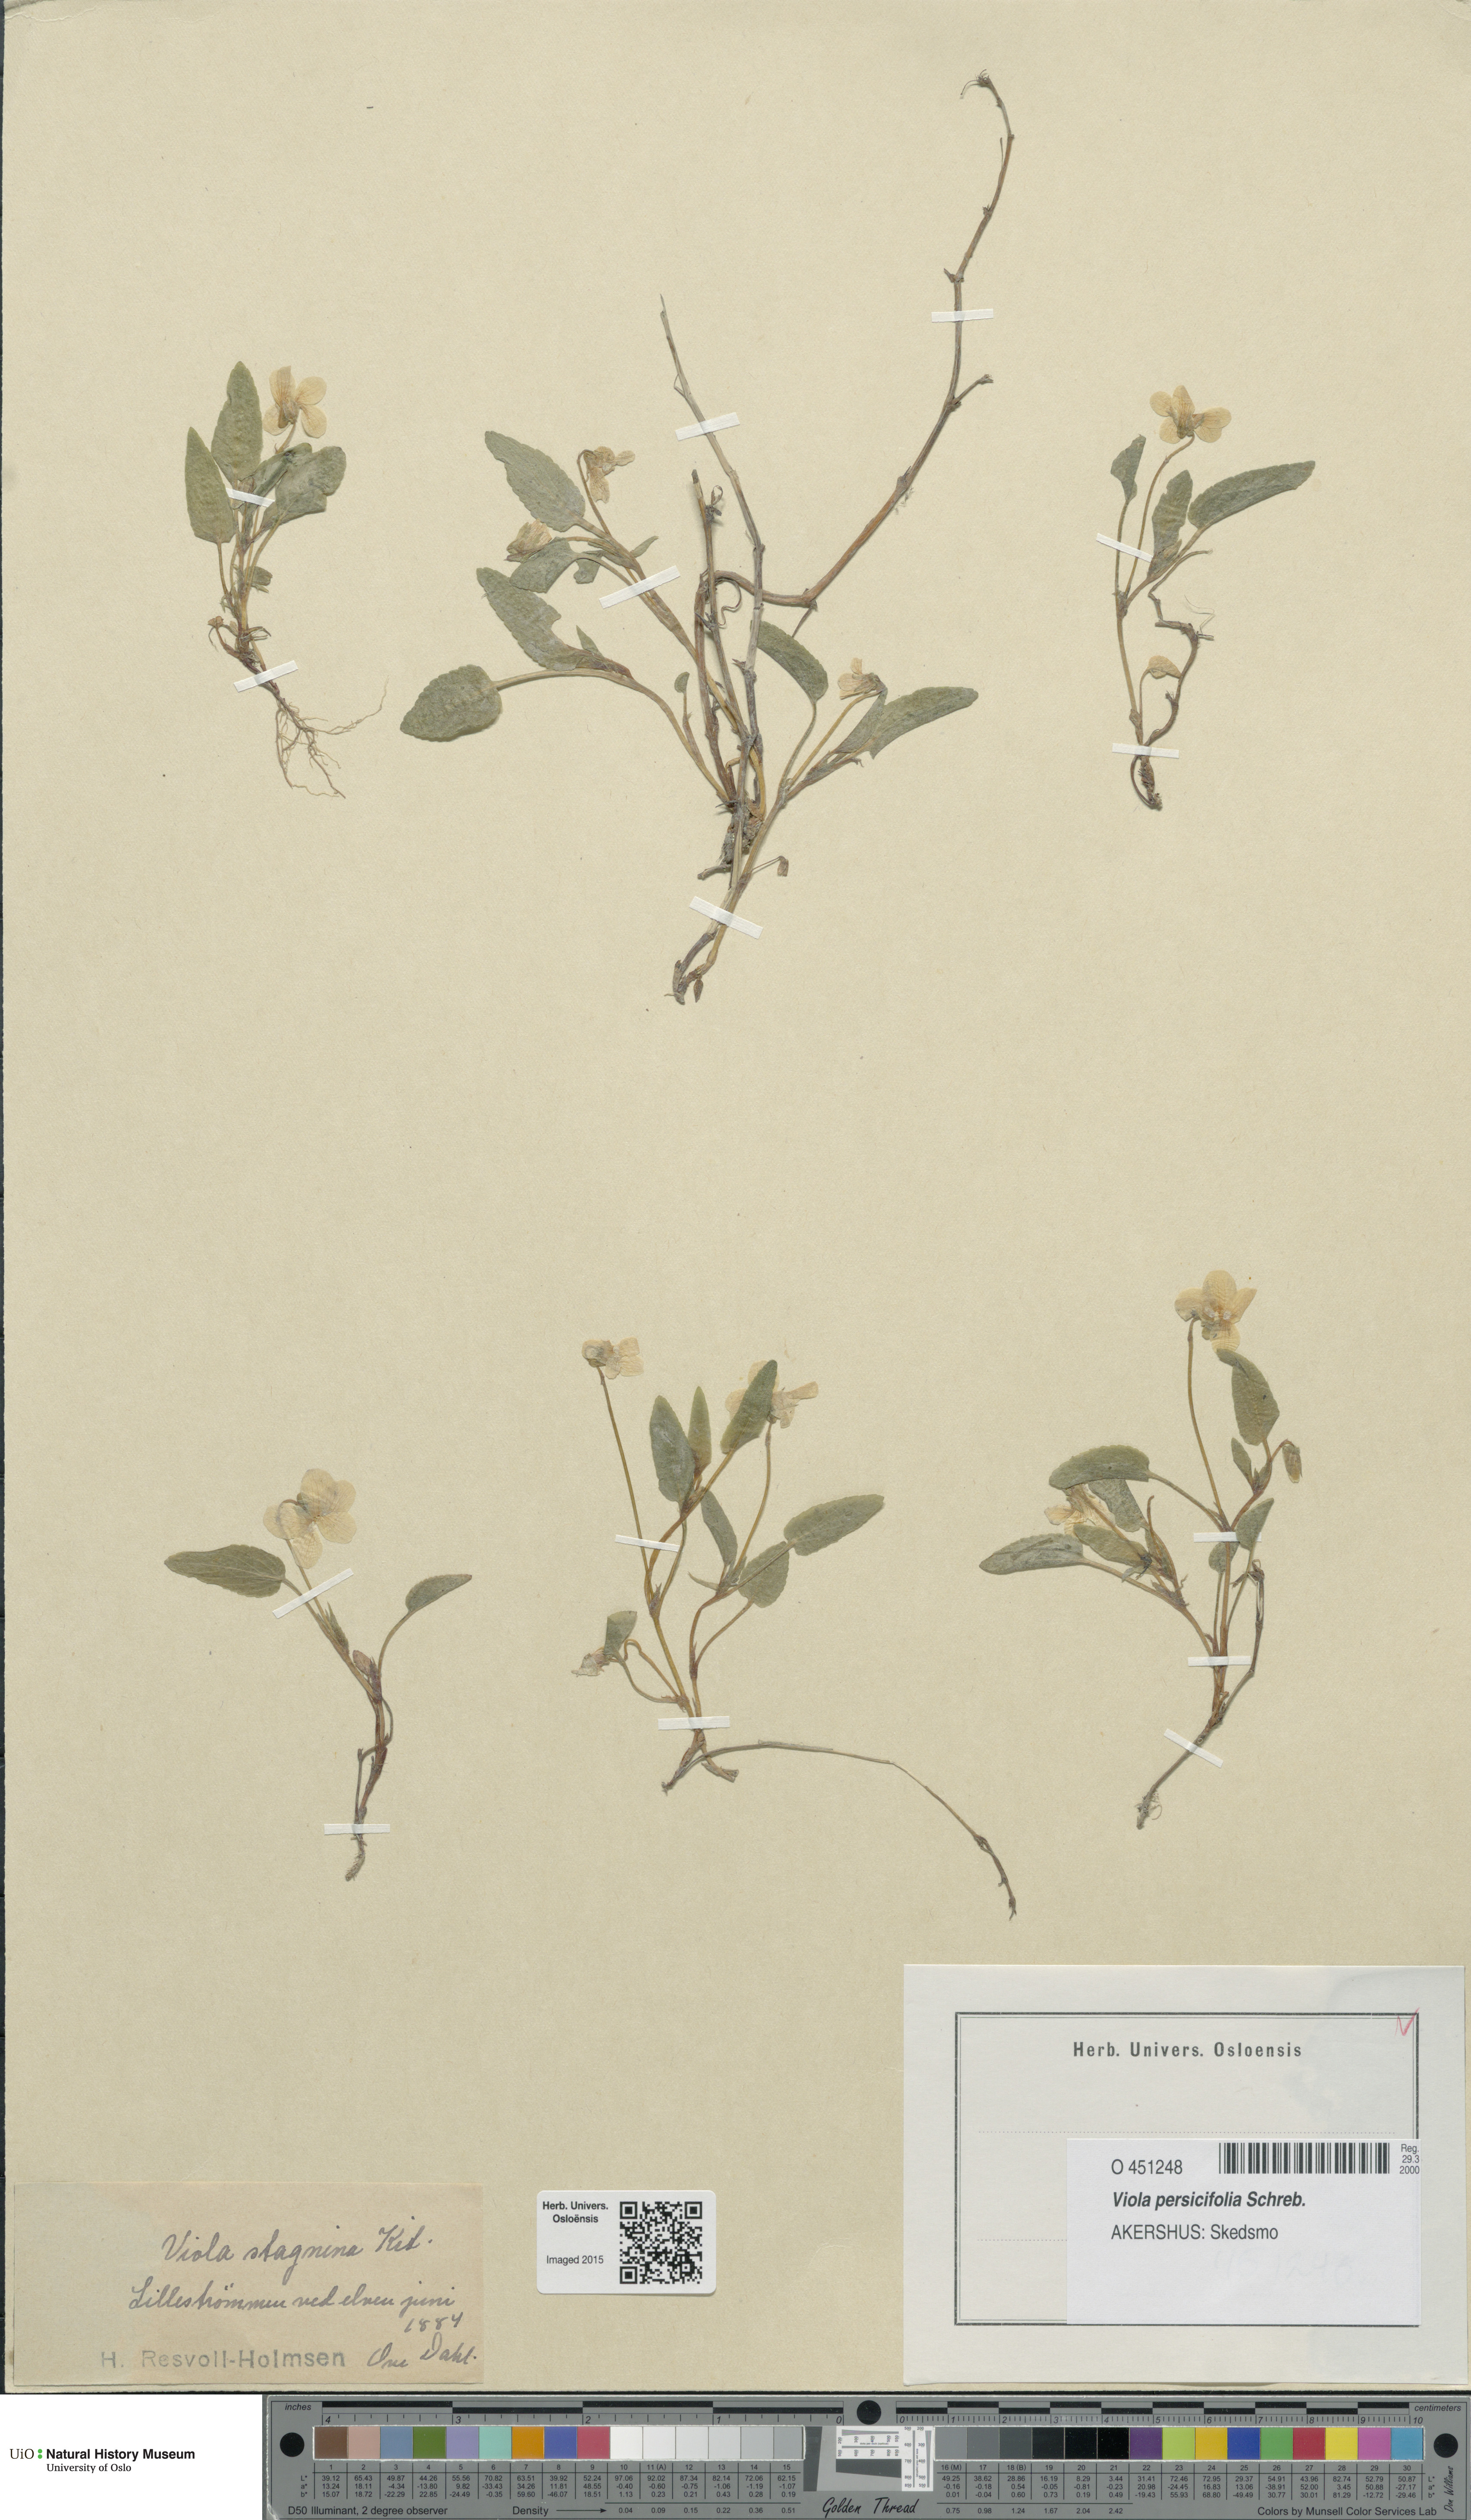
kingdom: Plantae
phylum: Tracheophyta
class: Magnoliopsida
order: Malpighiales
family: Violaceae
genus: Viola
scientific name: Viola stagnina
